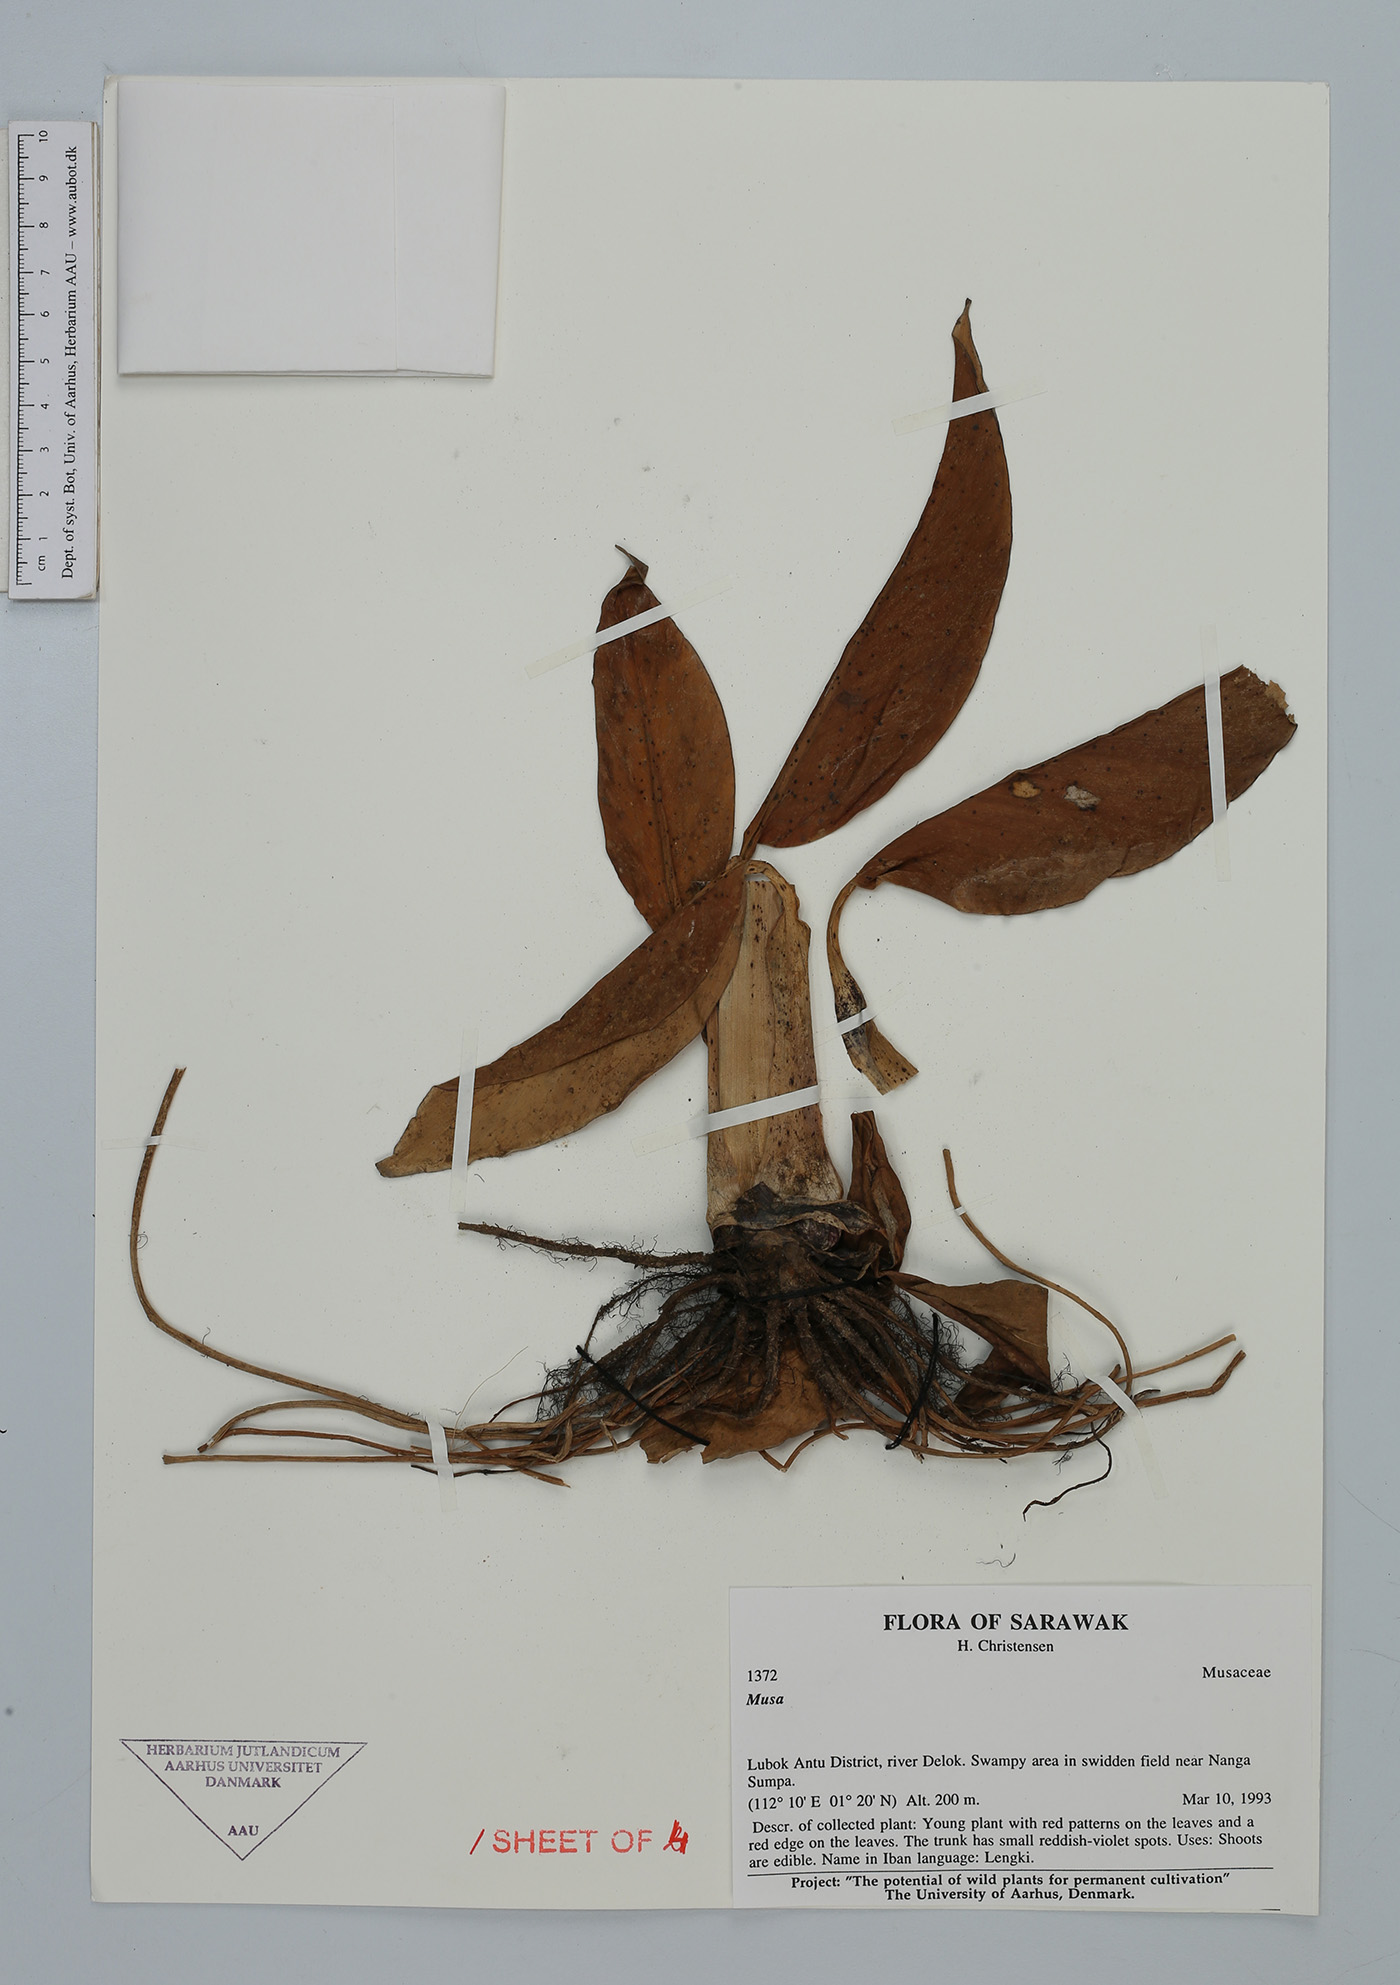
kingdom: Plantae
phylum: Tracheophyta
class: Liliopsida
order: Zingiberales
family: Musaceae
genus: Musa
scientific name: Musa
